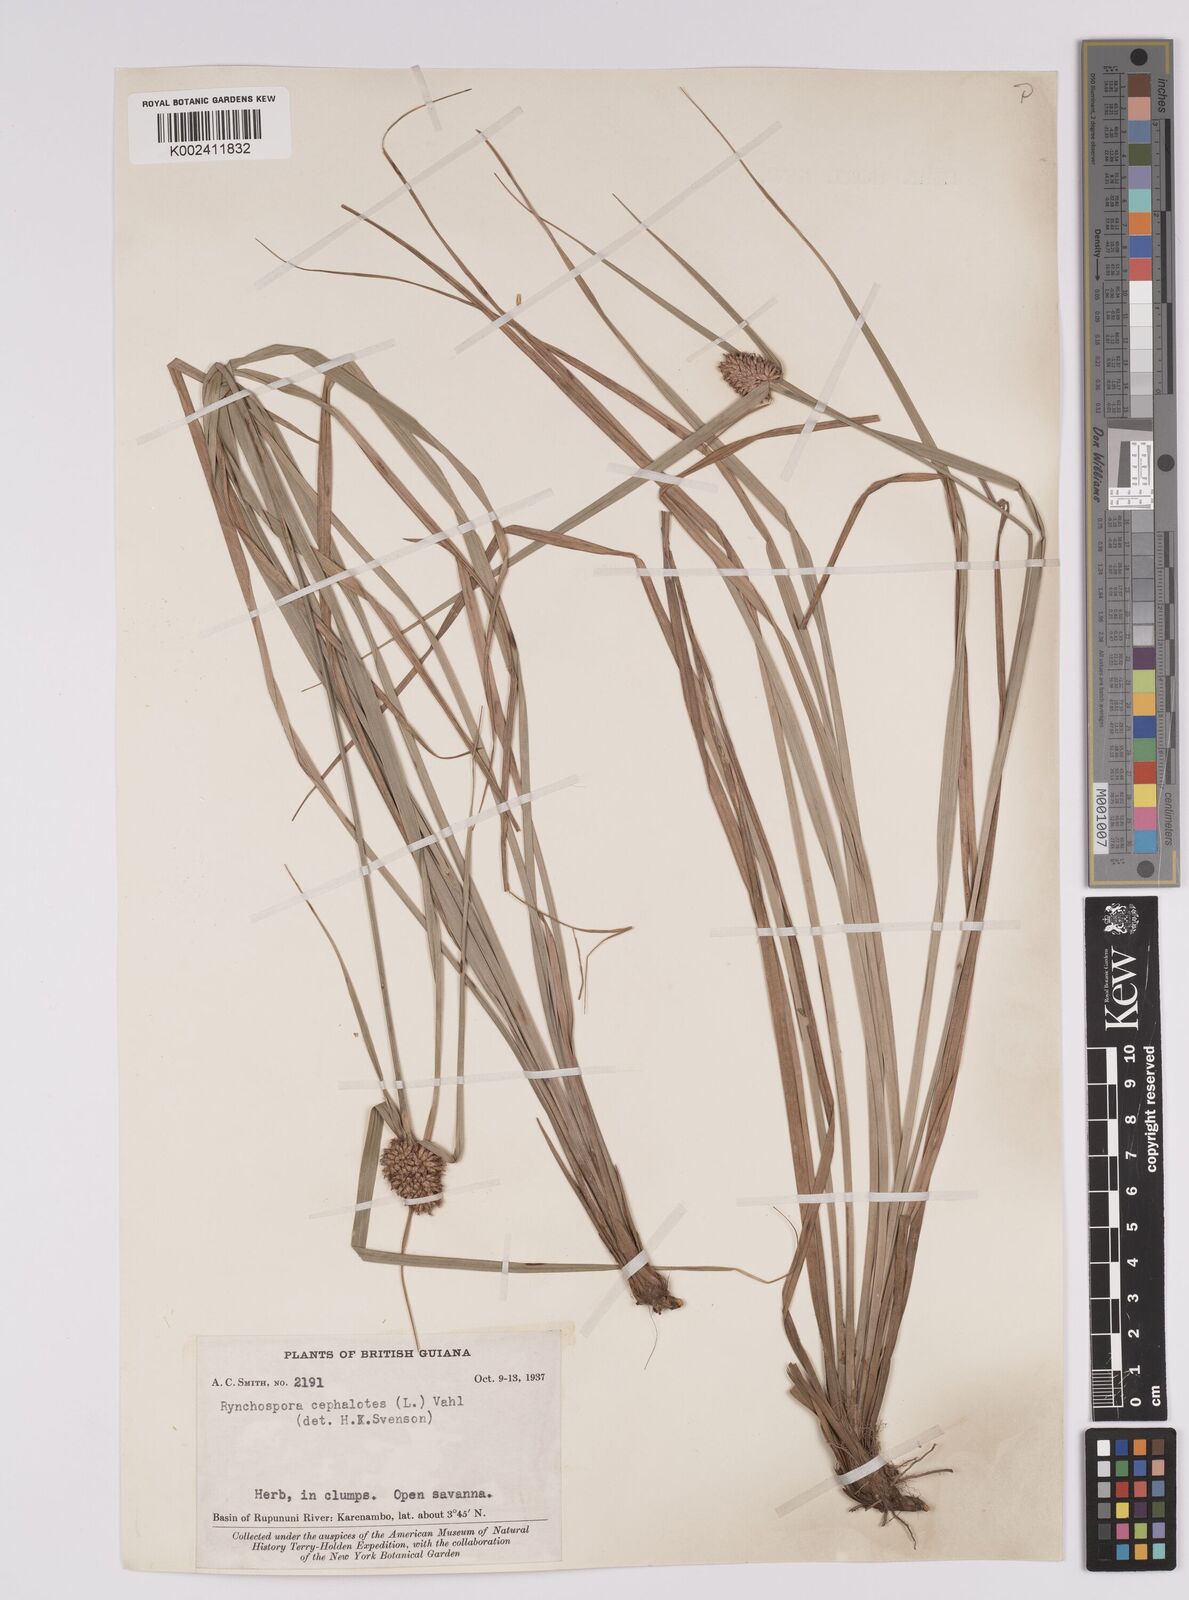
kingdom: Plantae
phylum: Tracheophyta
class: Liliopsida
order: Poales
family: Cyperaceae
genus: Rhynchospora
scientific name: Rhynchospora cephalotes
